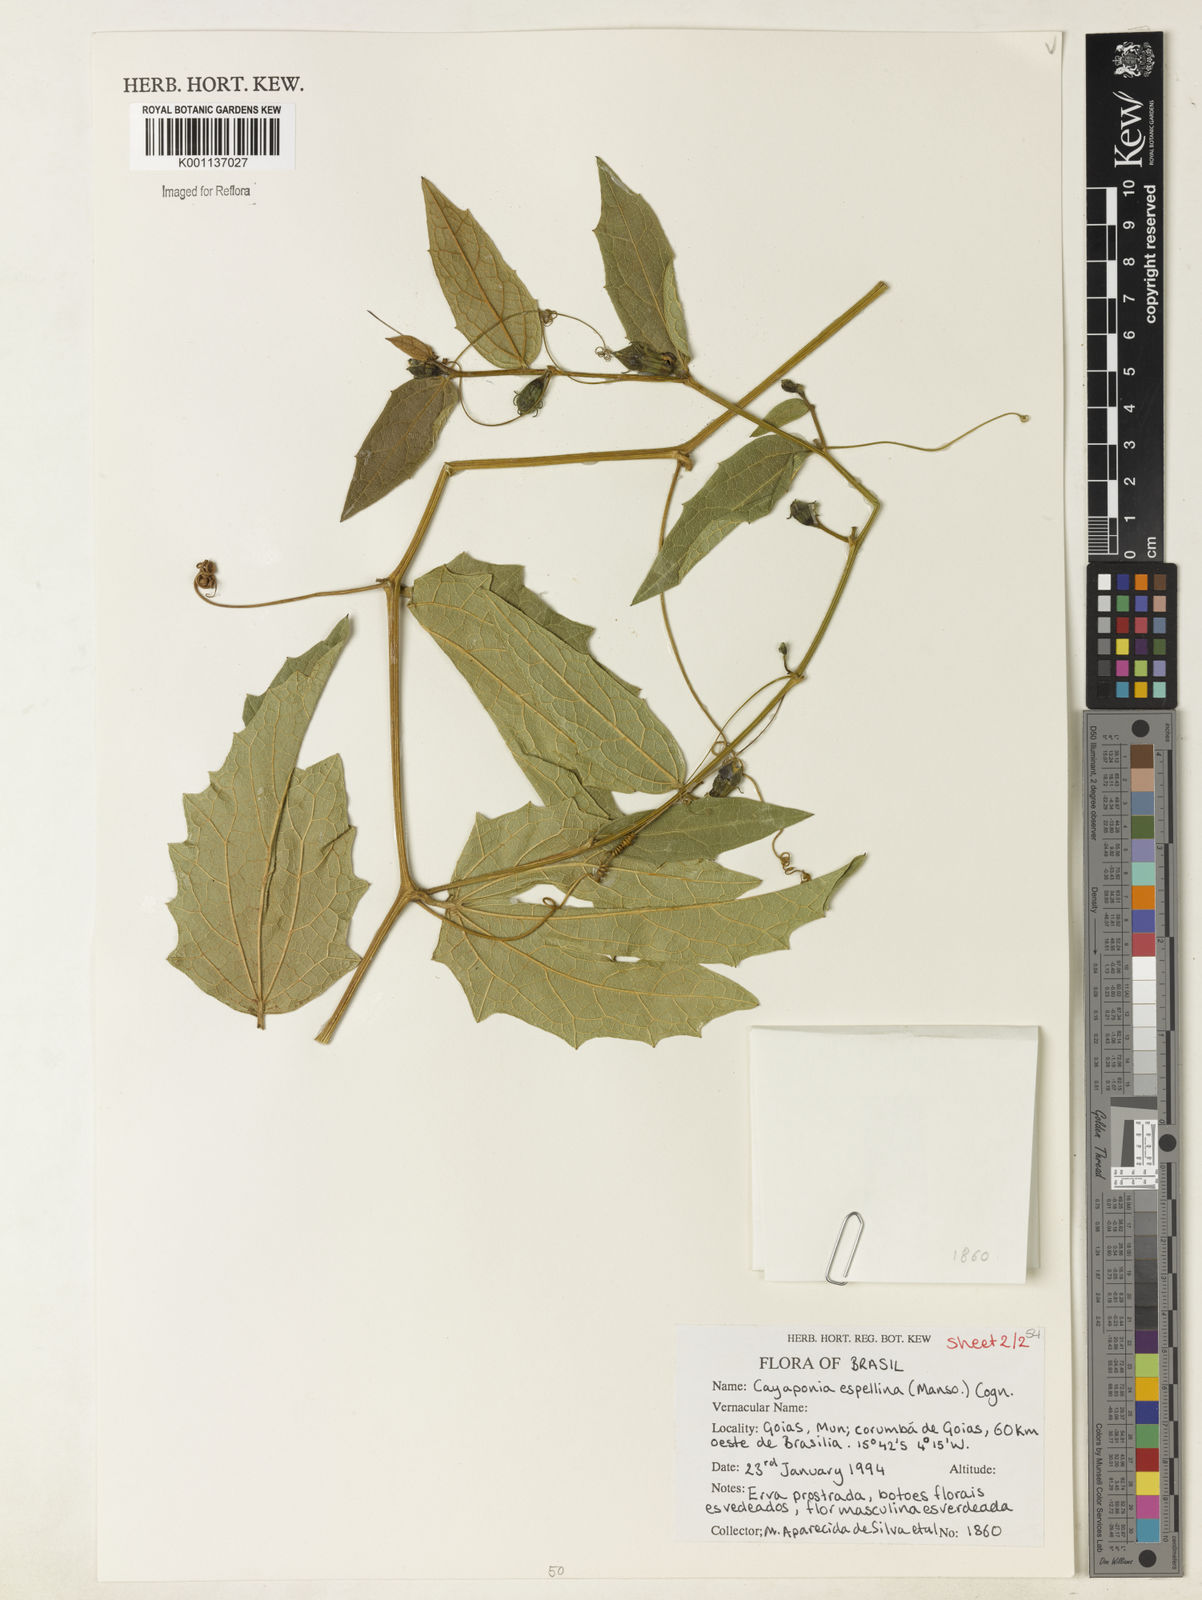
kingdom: Plantae
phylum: Tracheophyta
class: Magnoliopsida
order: Cucurbitales
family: Cucurbitaceae
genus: Cayaponia
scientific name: Cayaponia espelina
